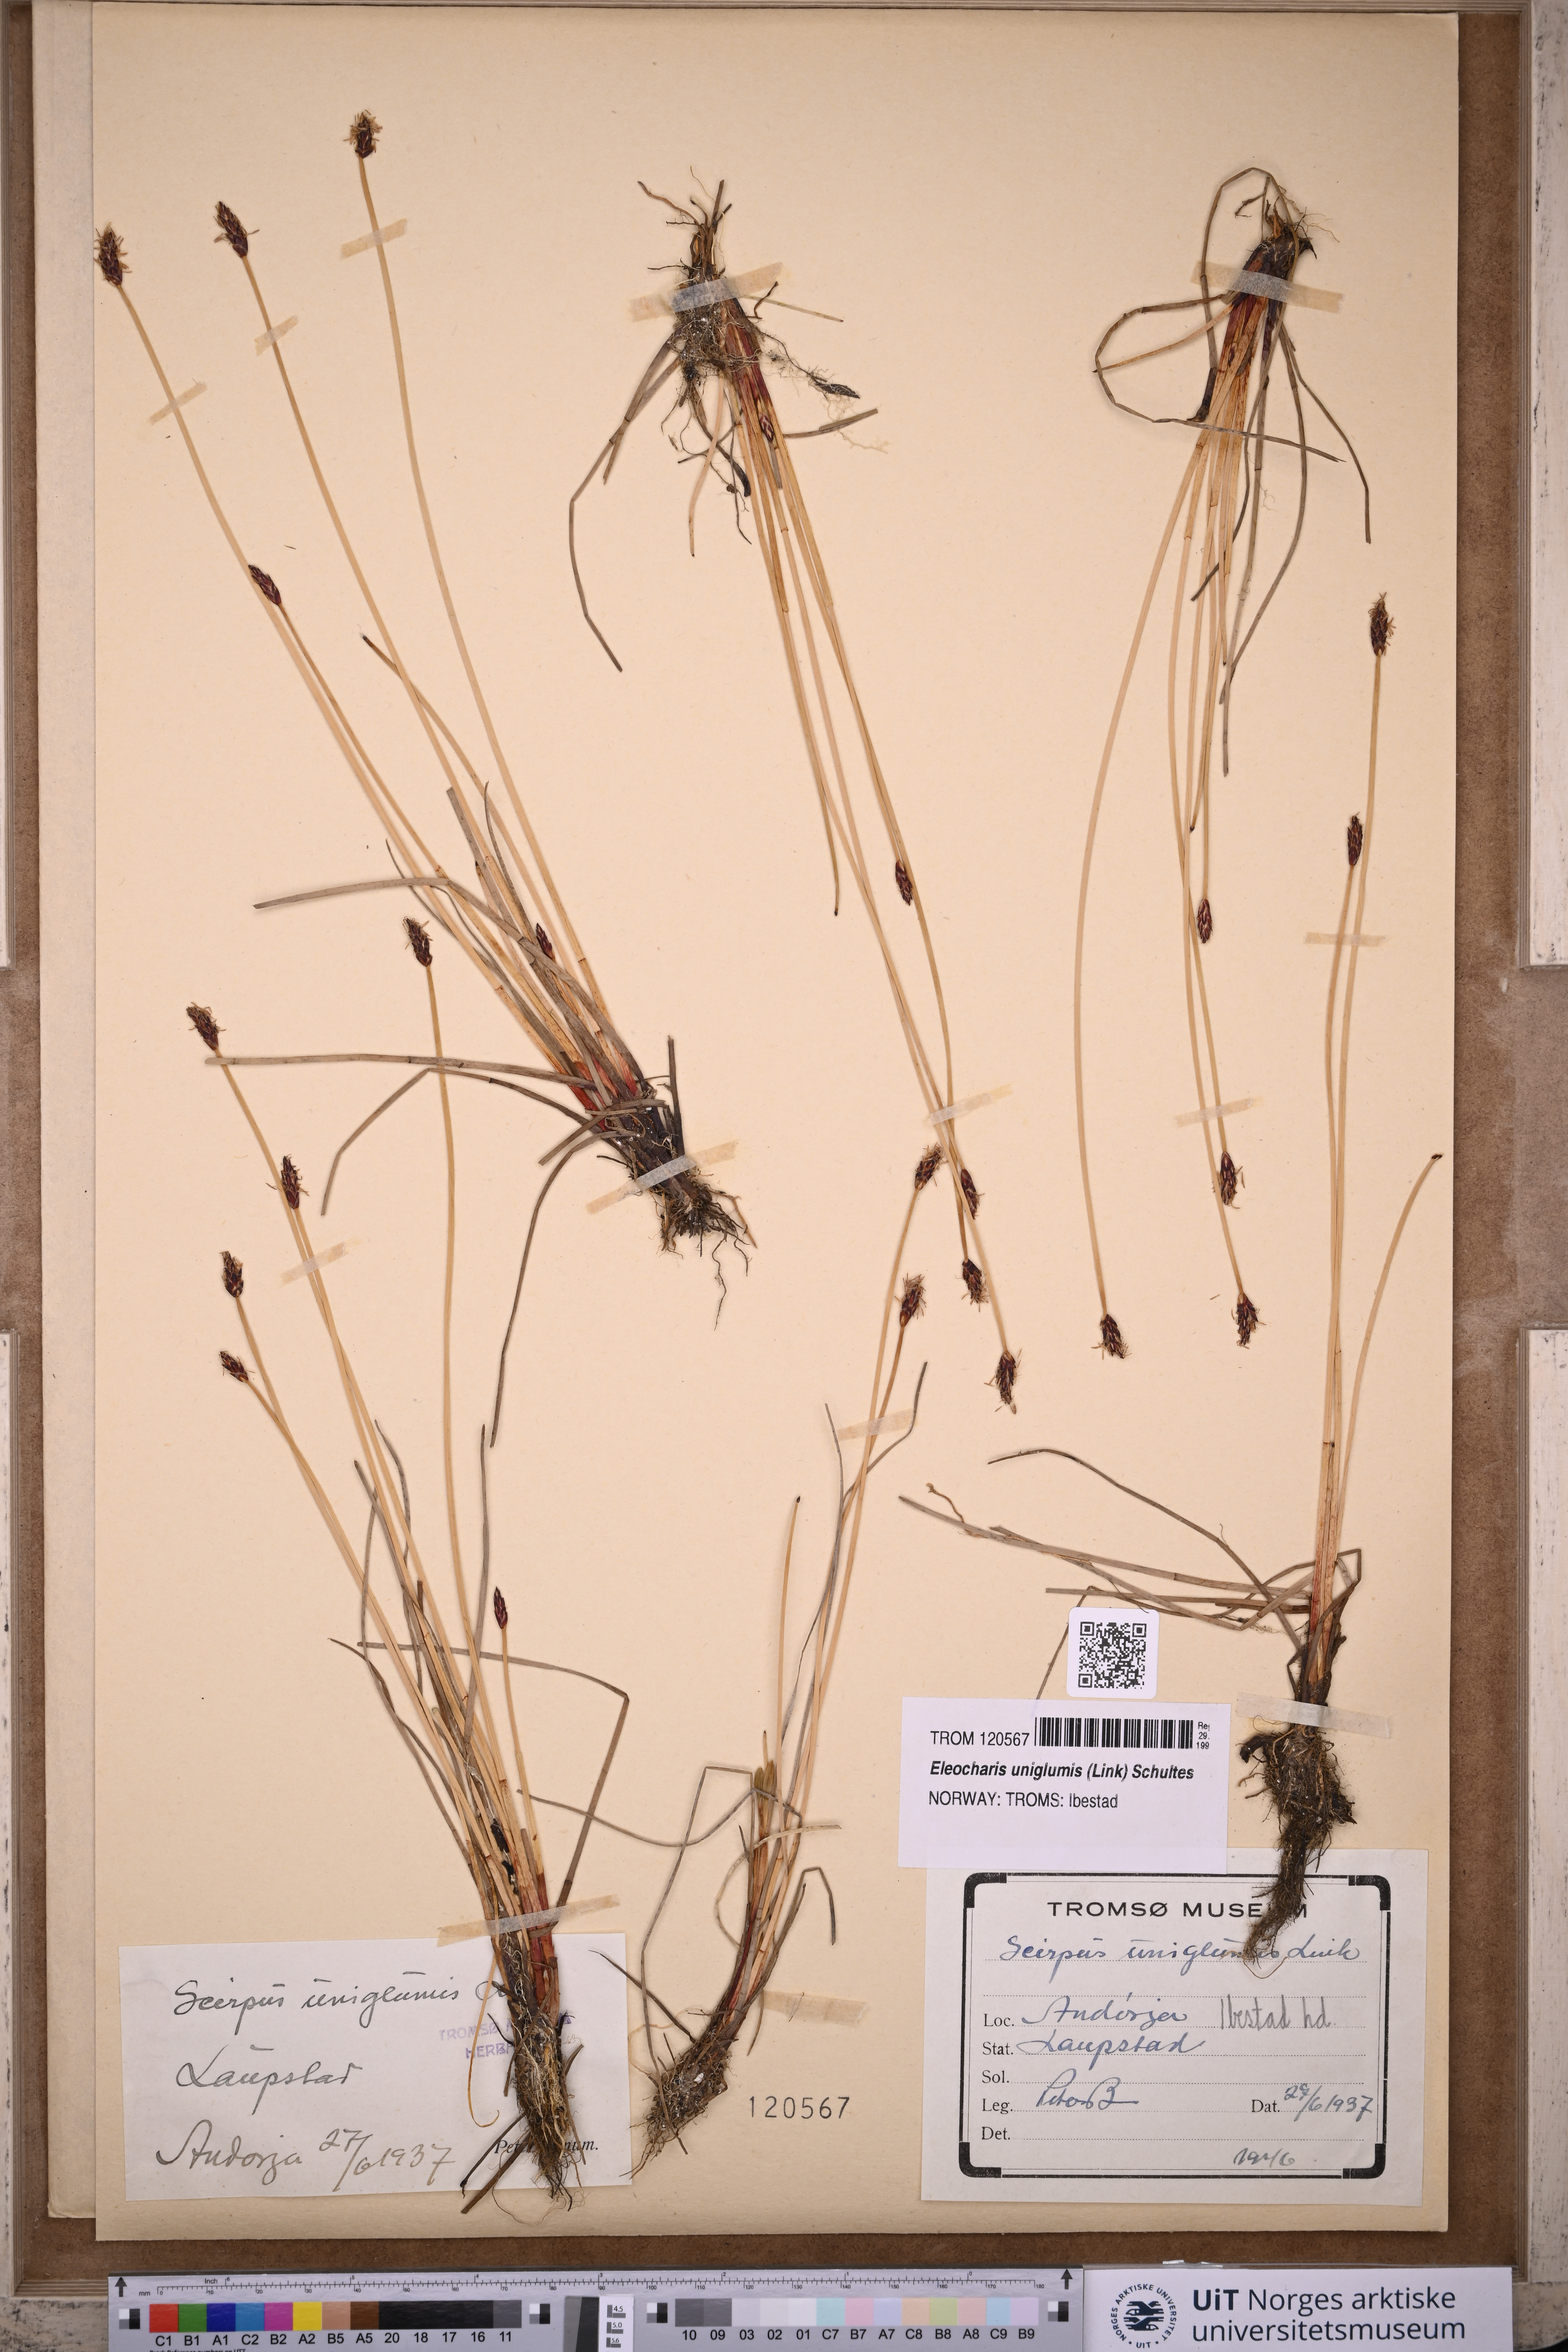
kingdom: Plantae
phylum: Tracheophyta
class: Liliopsida
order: Poales
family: Cyperaceae
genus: Eleocharis
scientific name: Eleocharis uniglumis
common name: Slender spike-rush
